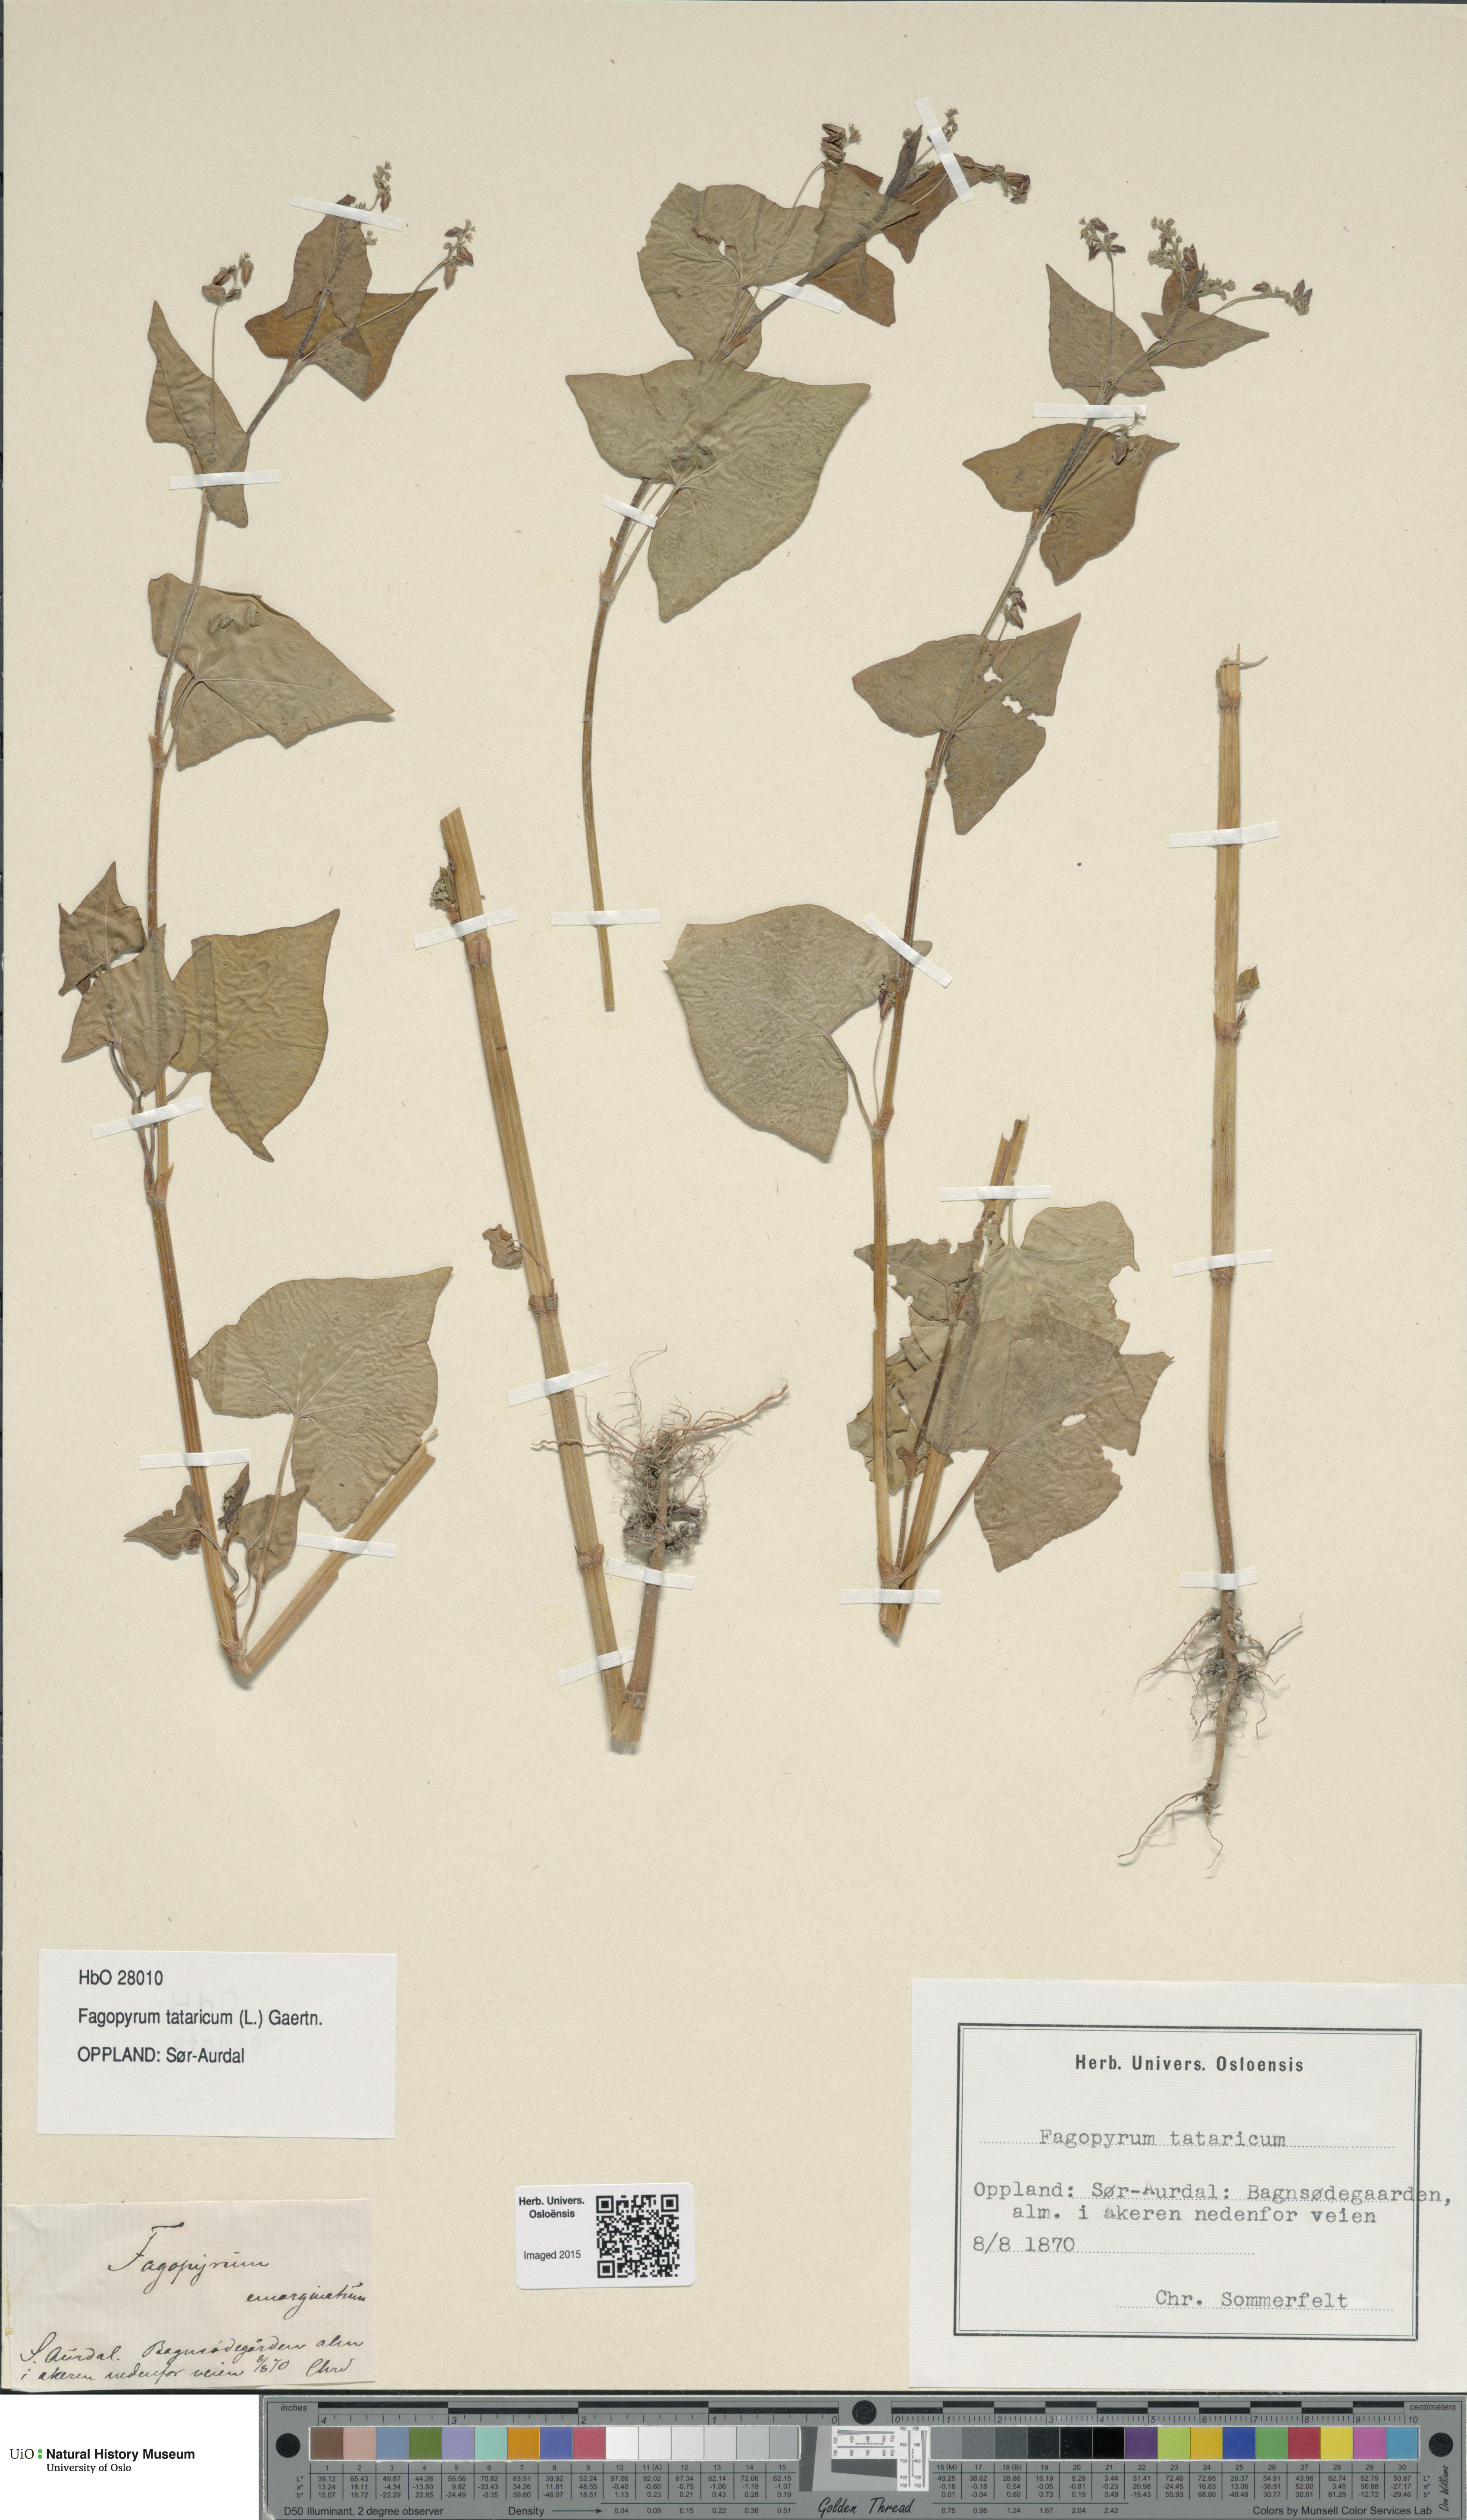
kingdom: Plantae
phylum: Tracheophyta
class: Magnoliopsida
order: Caryophyllales
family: Polygonaceae
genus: Fagopyrum
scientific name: Fagopyrum tataricum
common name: Green buckwheat
